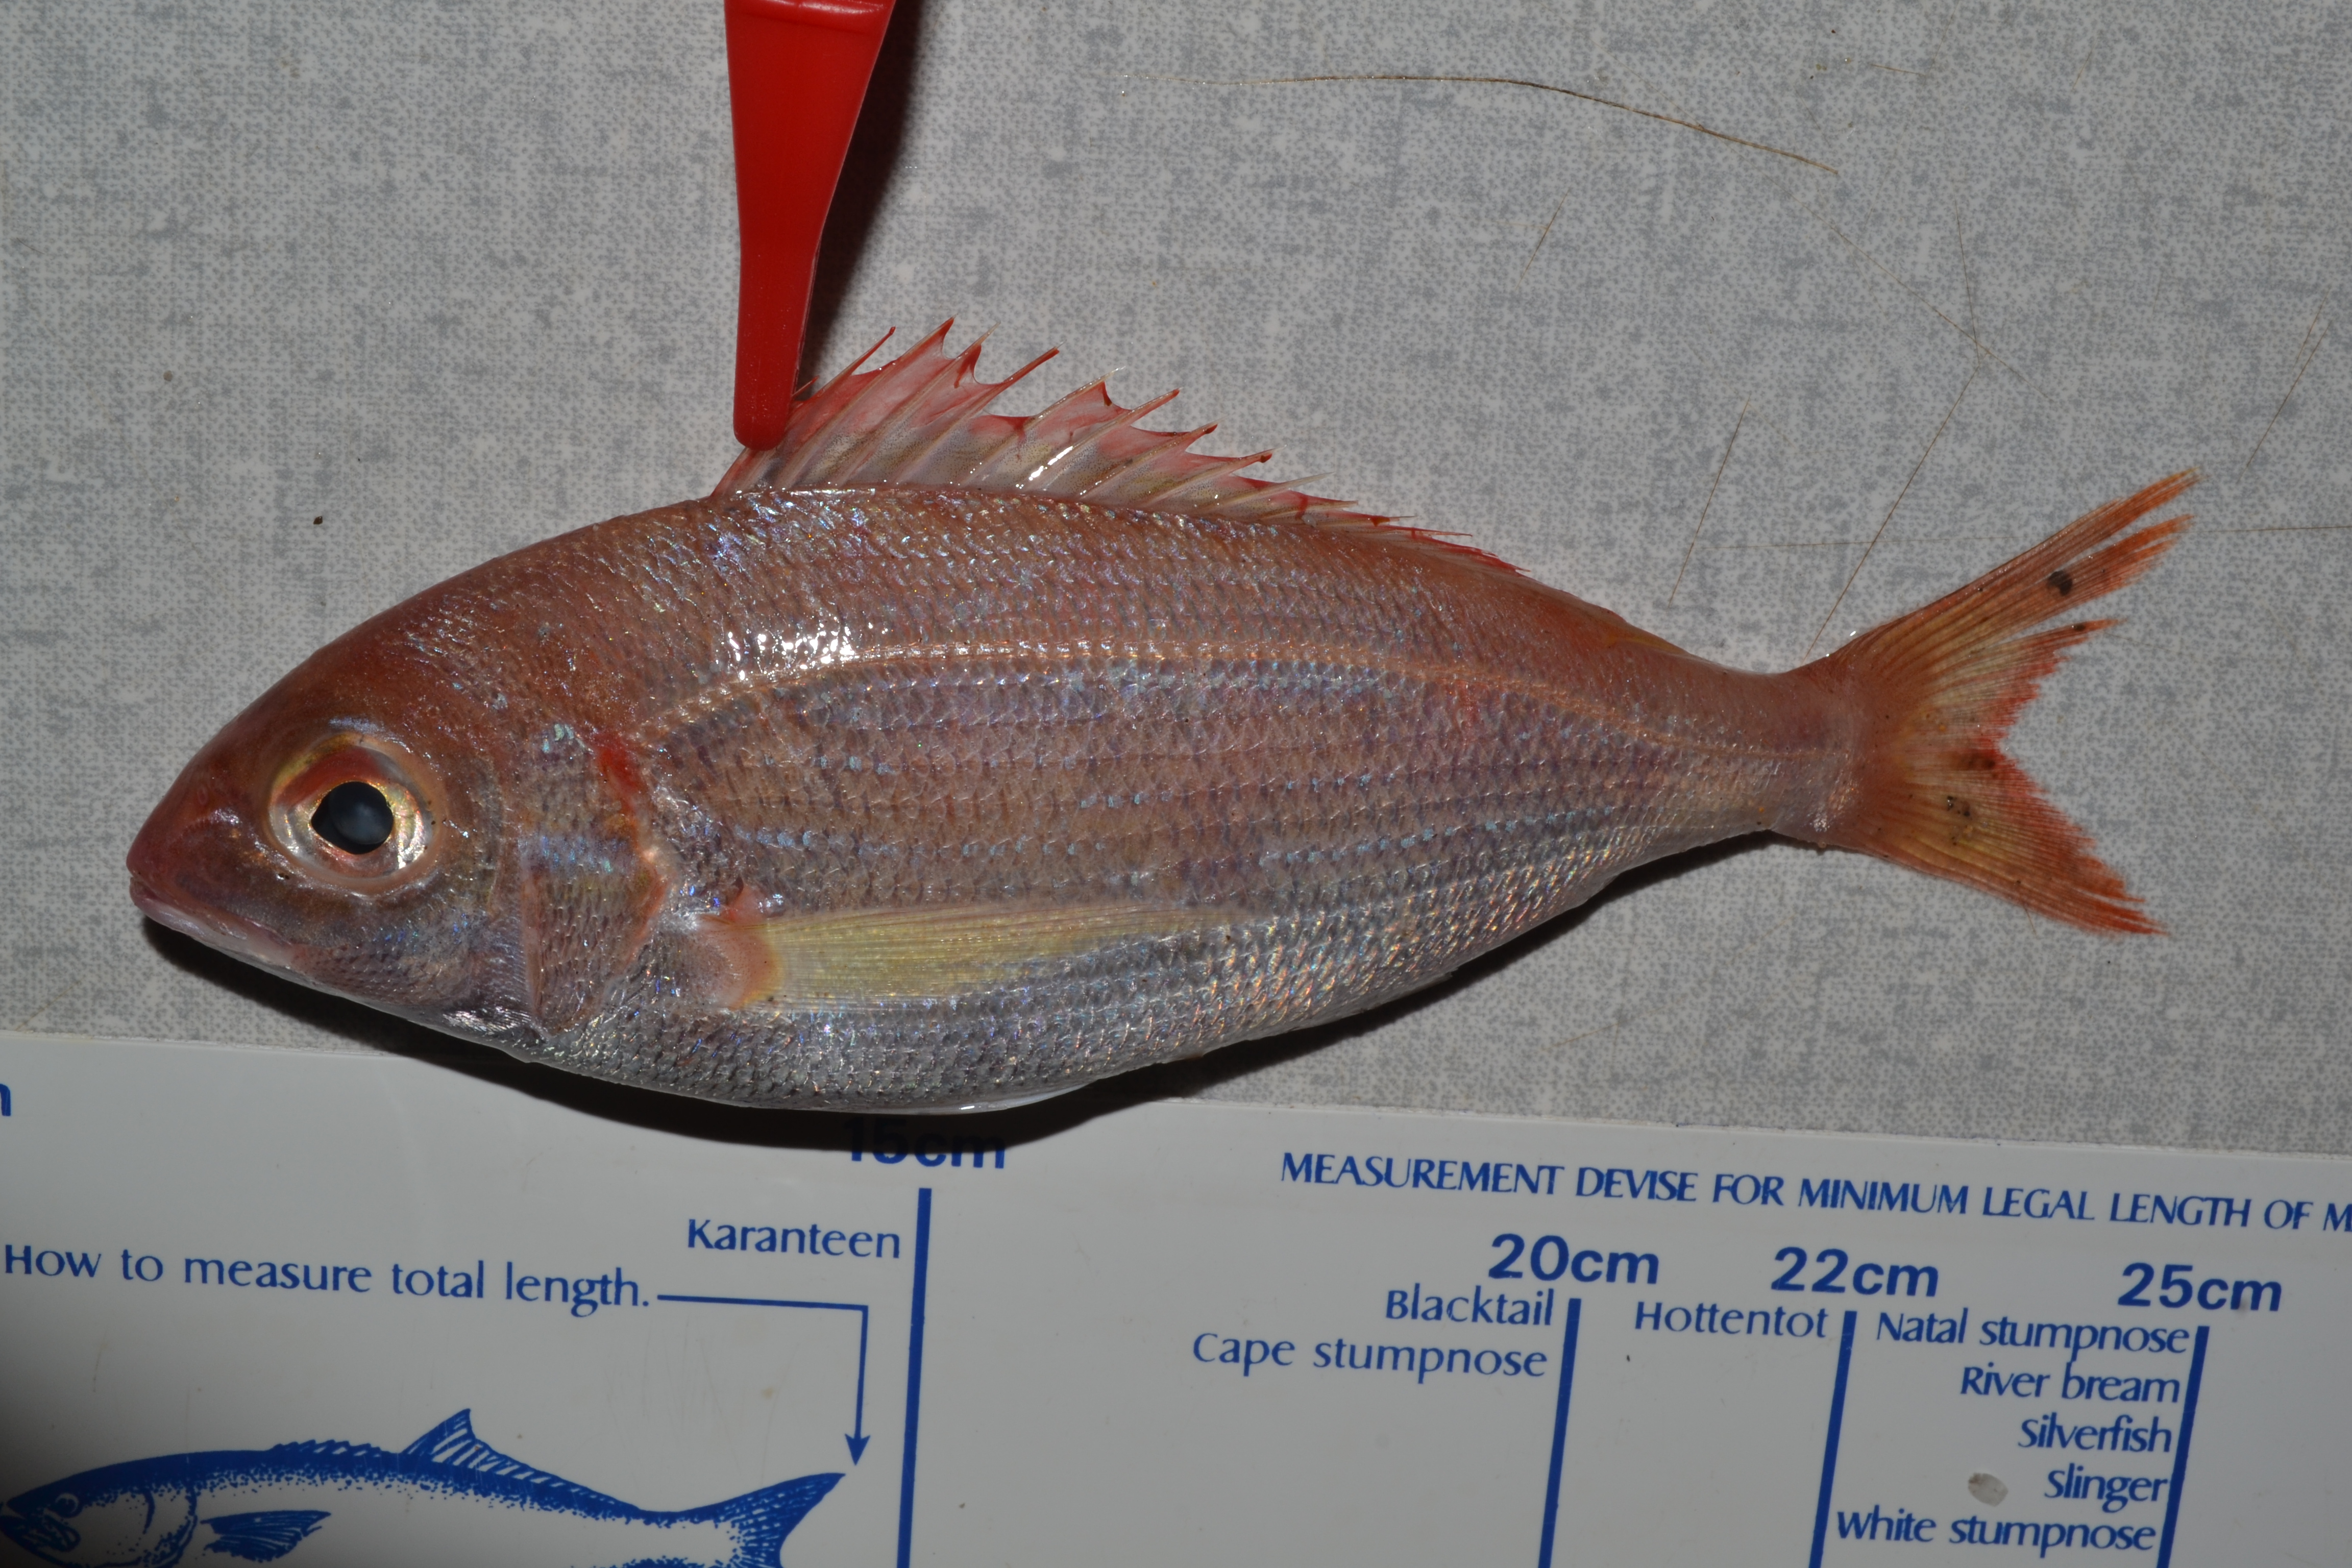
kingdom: Animalia
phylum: Chordata
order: Perciformes
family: Sparidae
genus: Polysteganus
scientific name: Polysteganus coeruleopunctatus
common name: Blueskin
